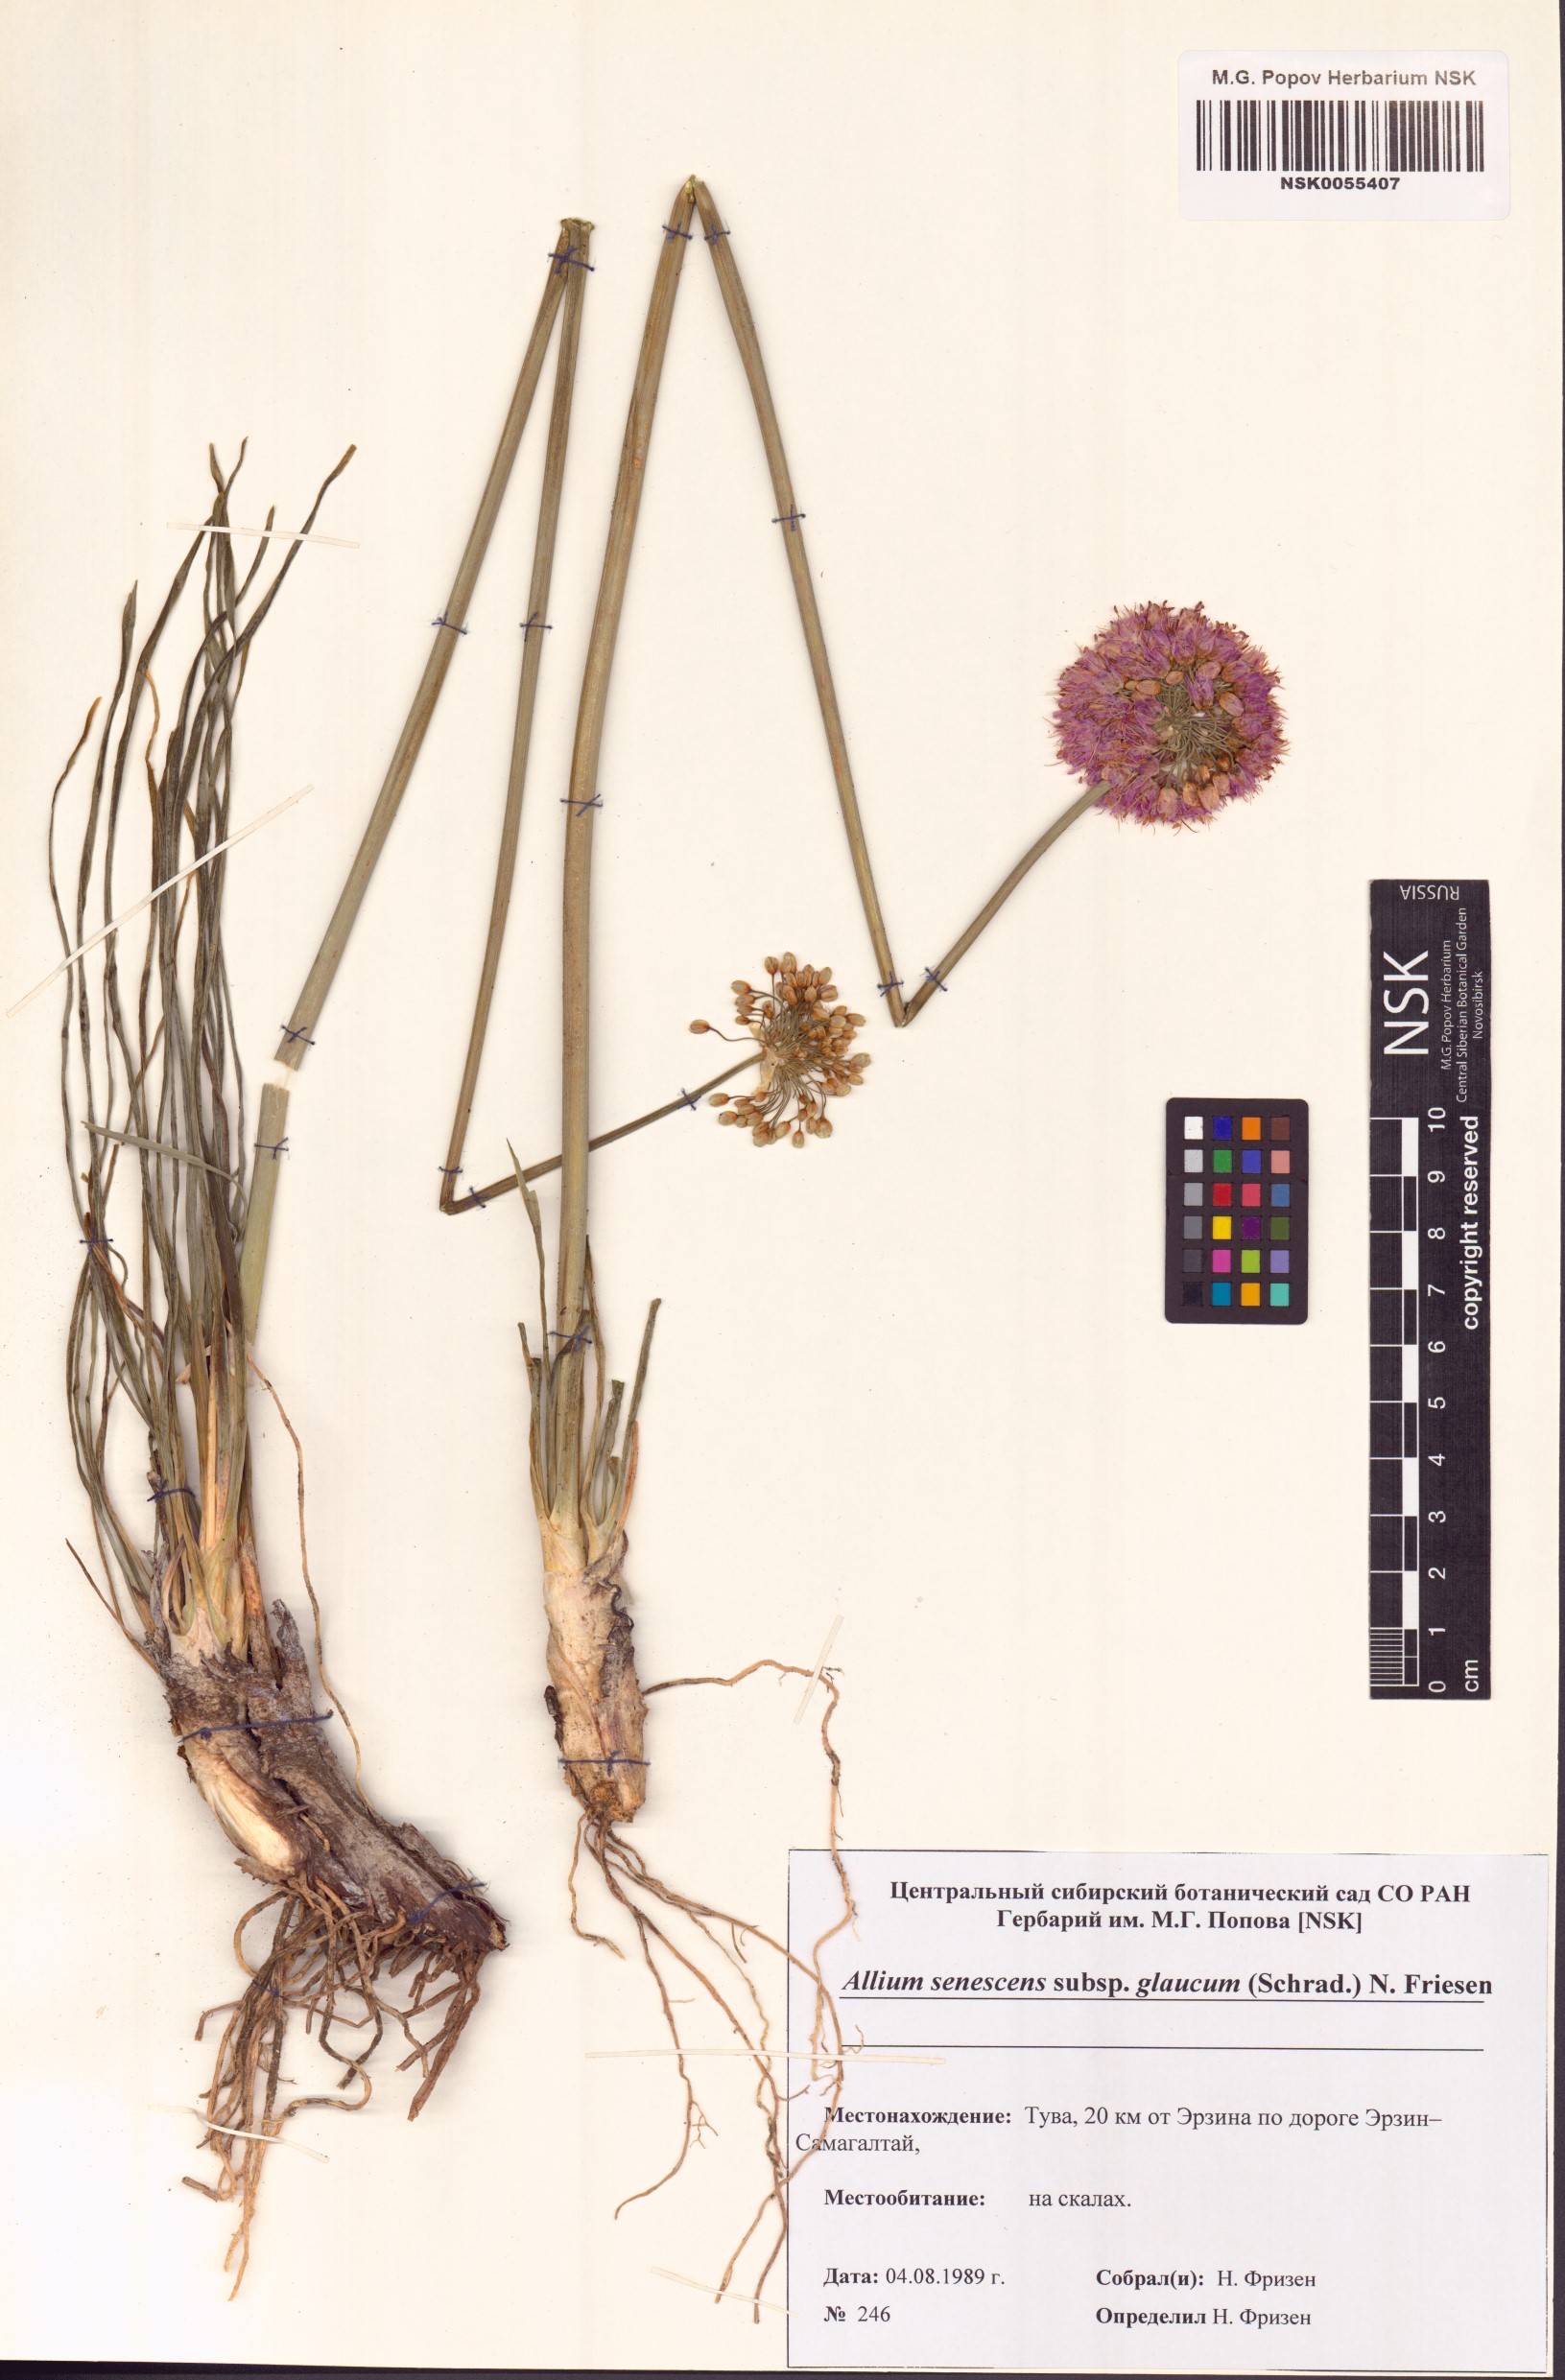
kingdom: Plantae
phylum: Tracheophyta
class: Liliopsida
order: Asparagales
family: Amaryllidaceae
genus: Allium
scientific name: Allium senescens
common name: German garlic
